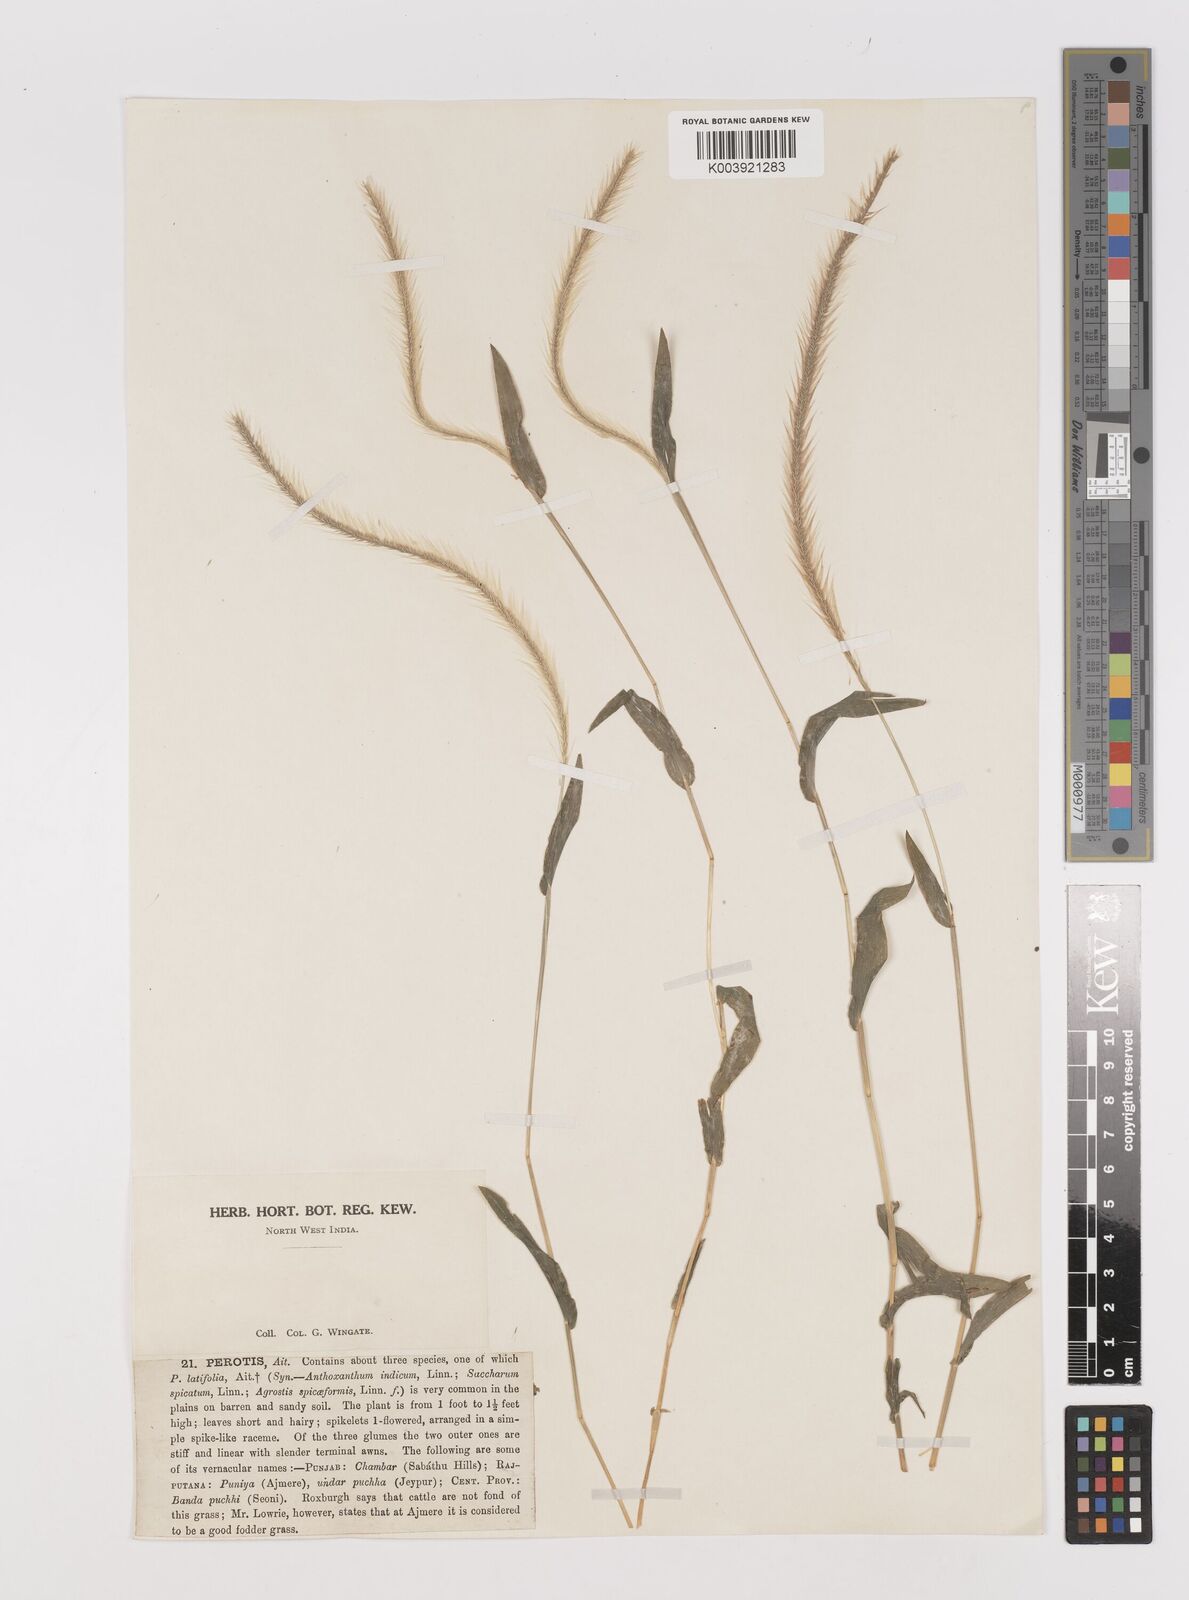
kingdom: Plantae
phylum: Tracheophyta
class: Liliopsida
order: Poales
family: Poaceae
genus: Perotis
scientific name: Perotis hordeiformis
